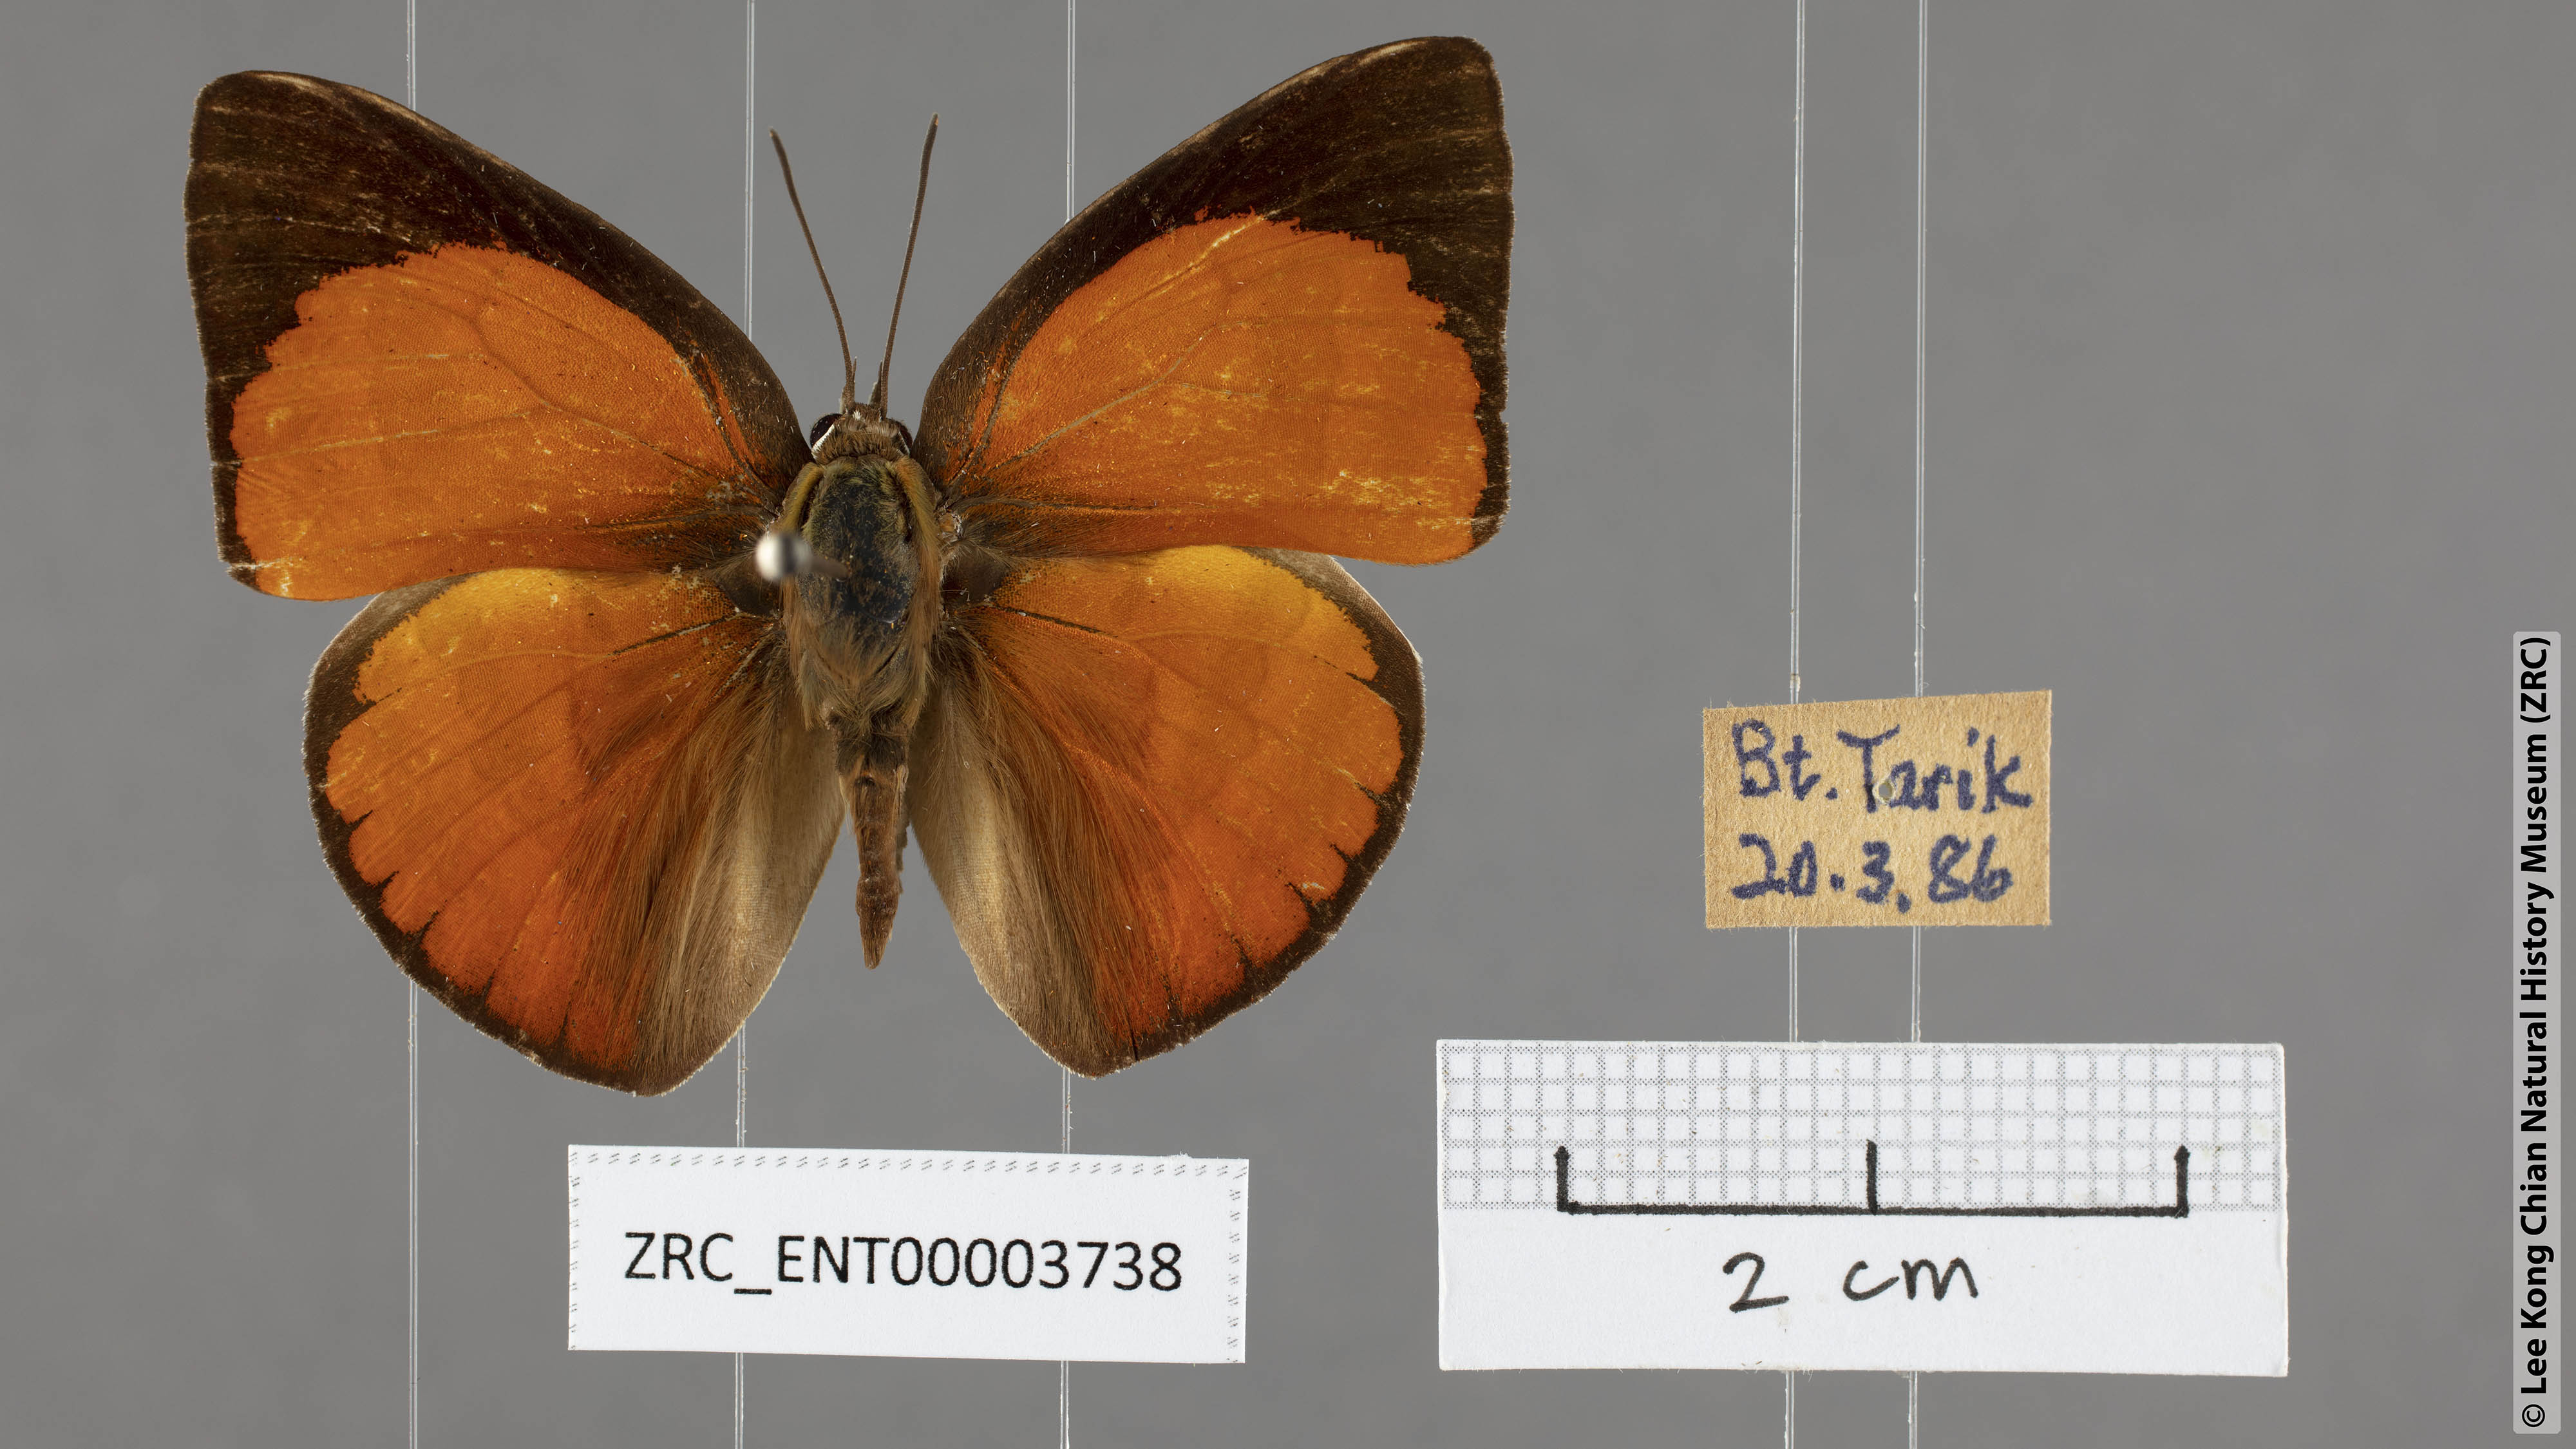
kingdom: Animalia
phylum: Arthropoda
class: Insecta
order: Lepidoptera
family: Lycaenidae
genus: Curetis
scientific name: Curetis regula
